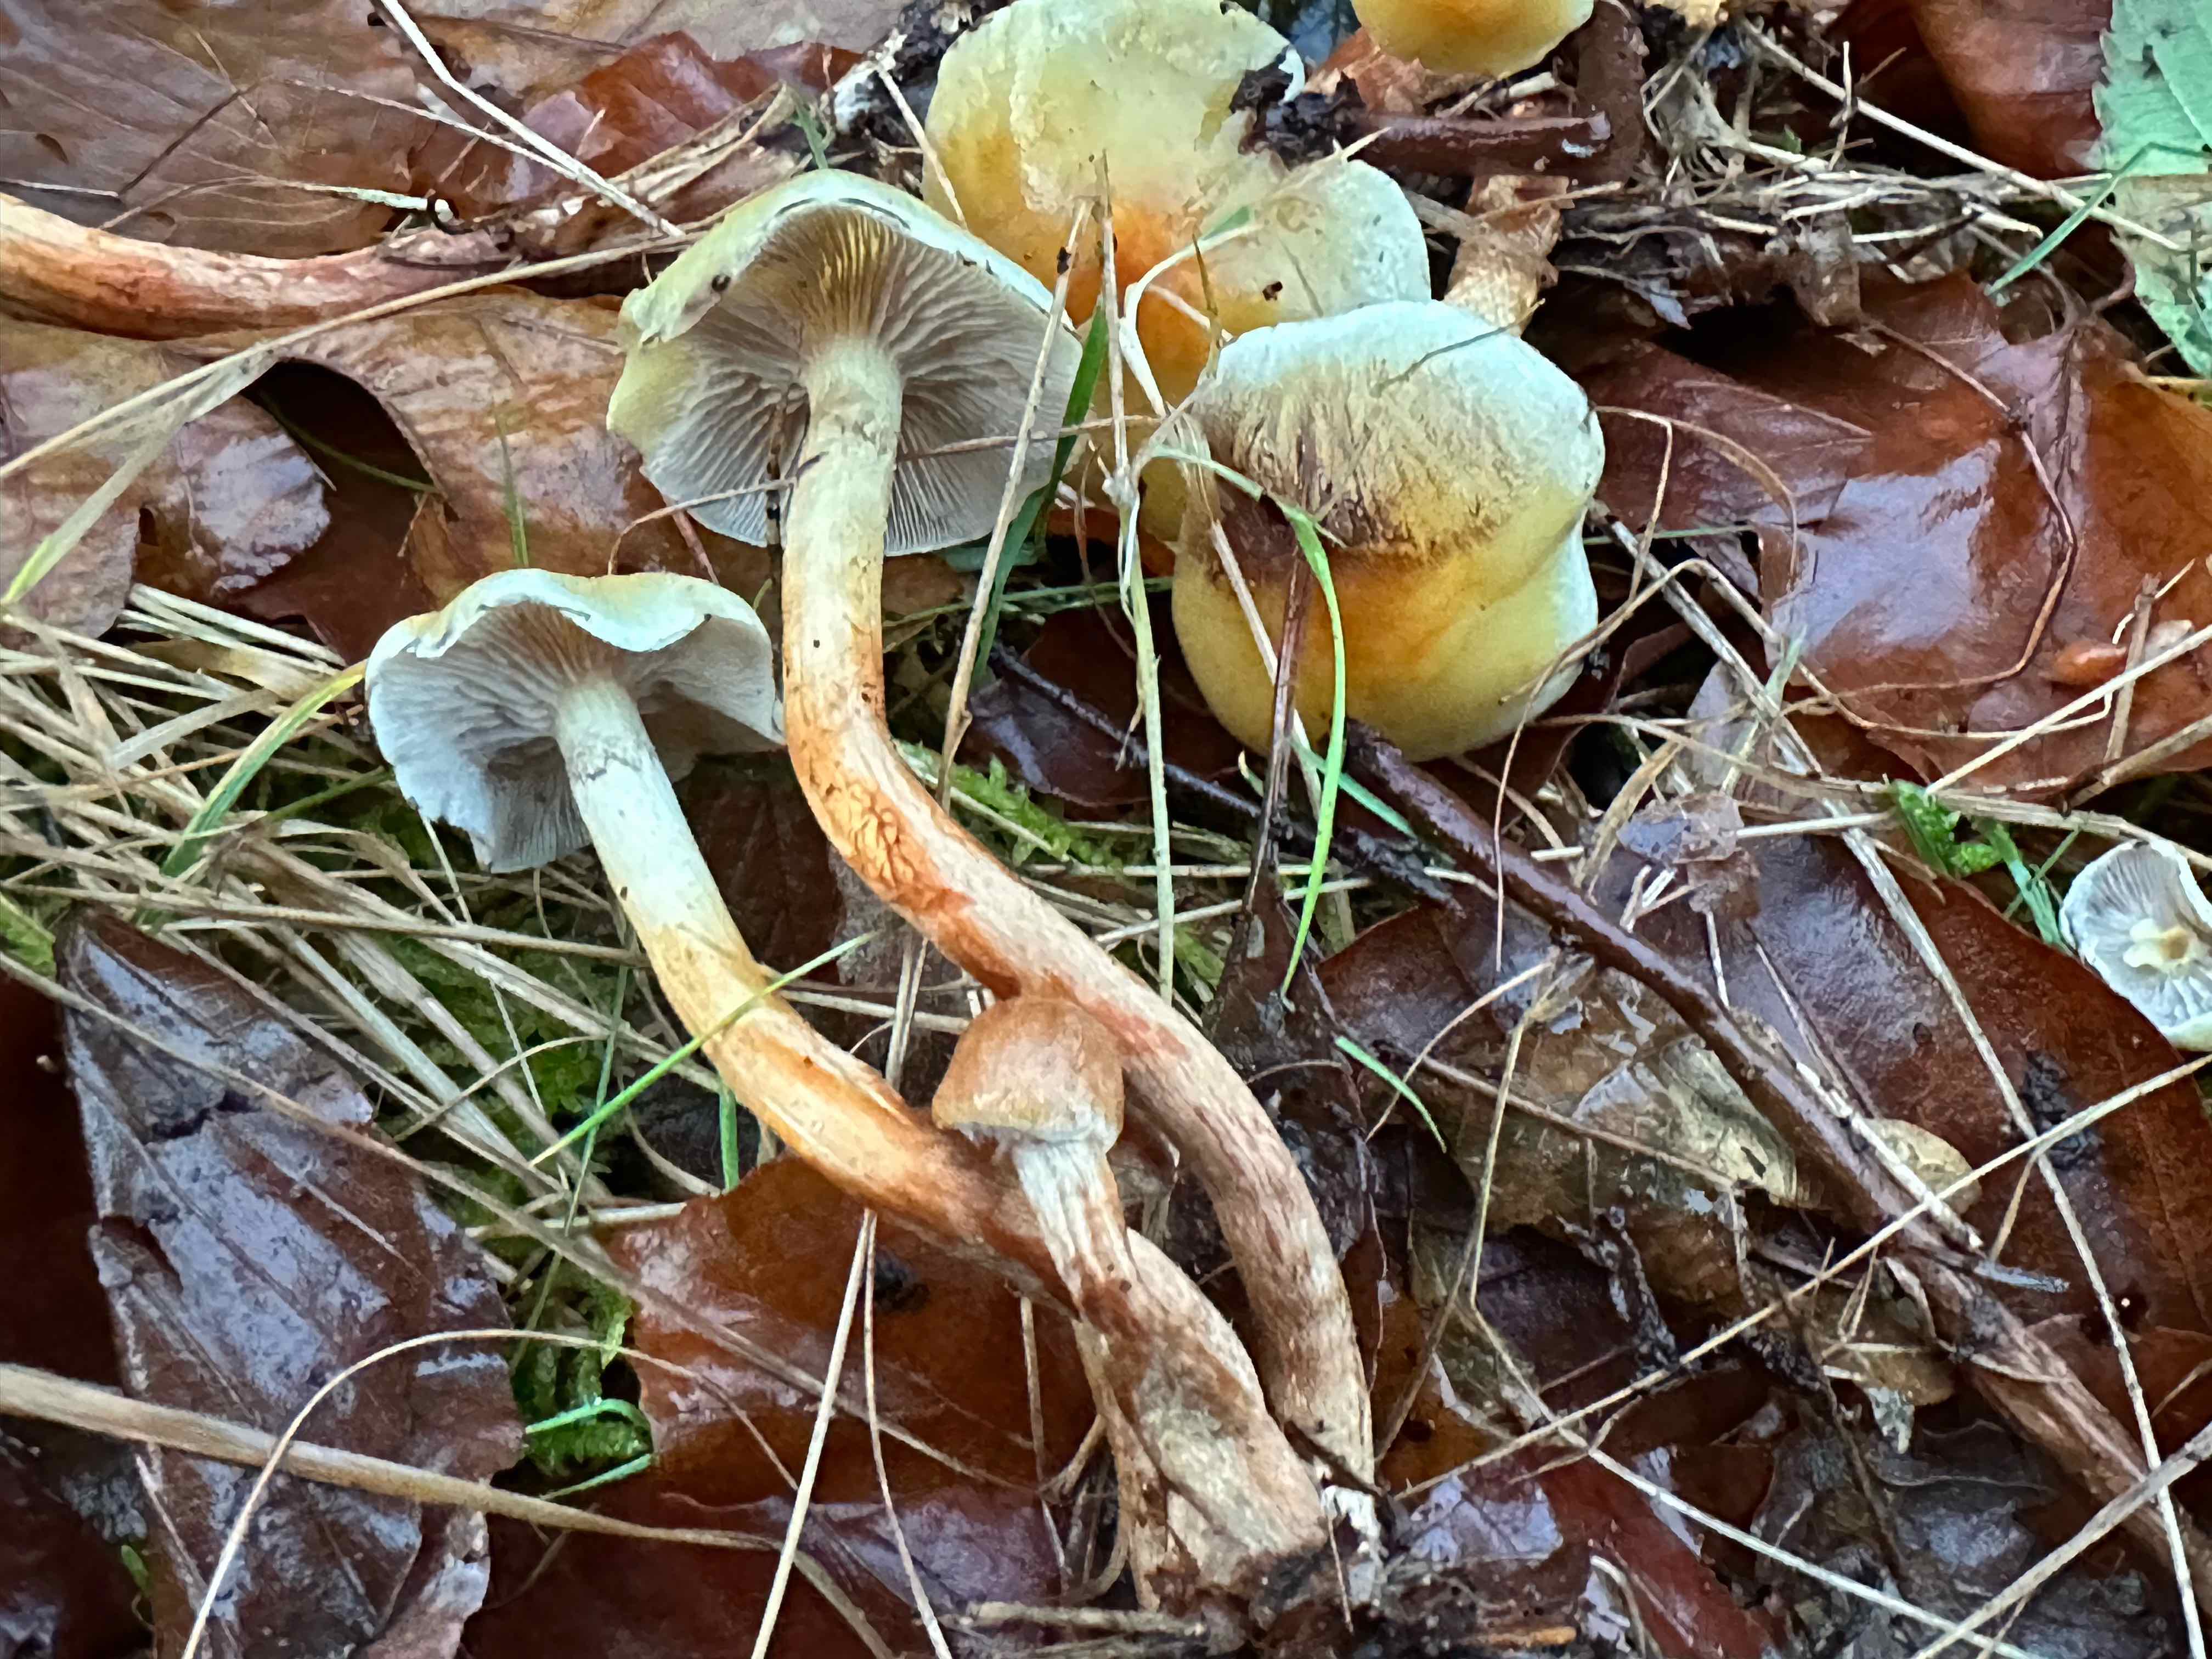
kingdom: Fungi
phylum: Basidiomycota
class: Agaricomycetes
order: Agaricales
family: Strophariaceae
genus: Hypholoma
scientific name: Hypholoma capnoides
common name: gran-svovlhat
